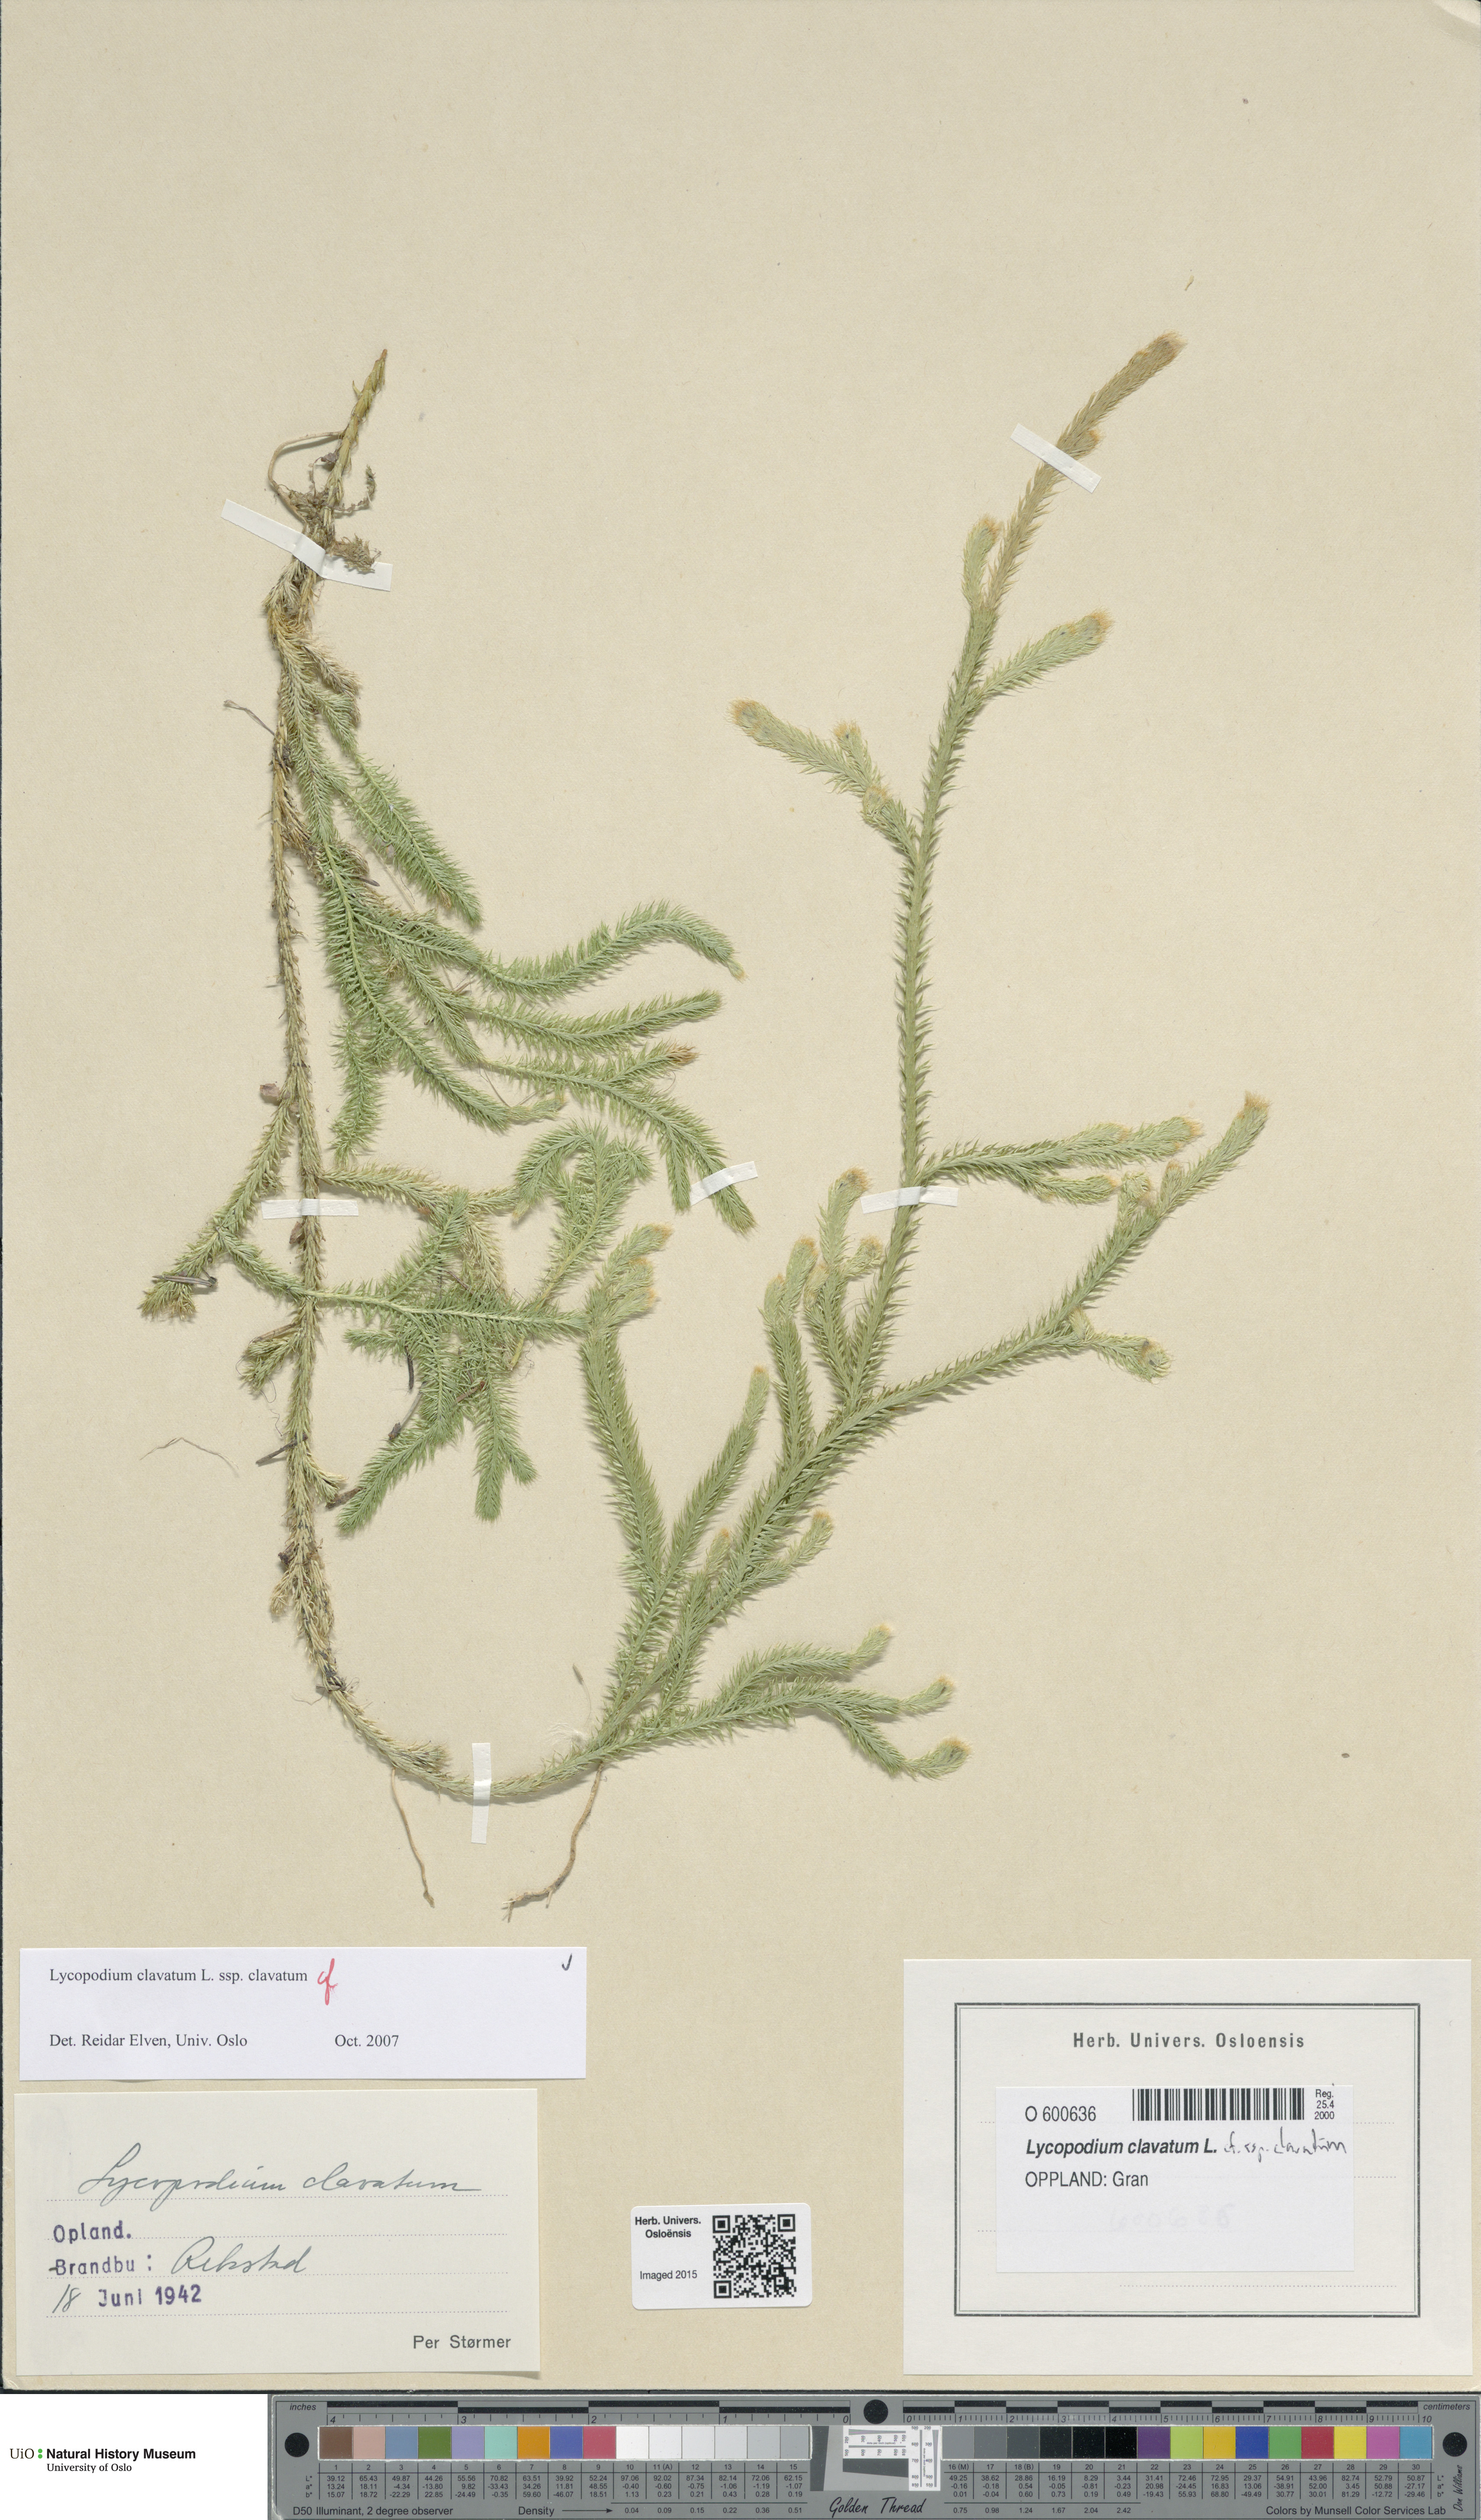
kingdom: Plantae
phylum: Tracheophyta
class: Lycopodiopsida
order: Lycopodiales
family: Lycopodiaceae
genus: Lycopodium
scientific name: Lycopodium clavatum
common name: Stag's-horn clubmoss
